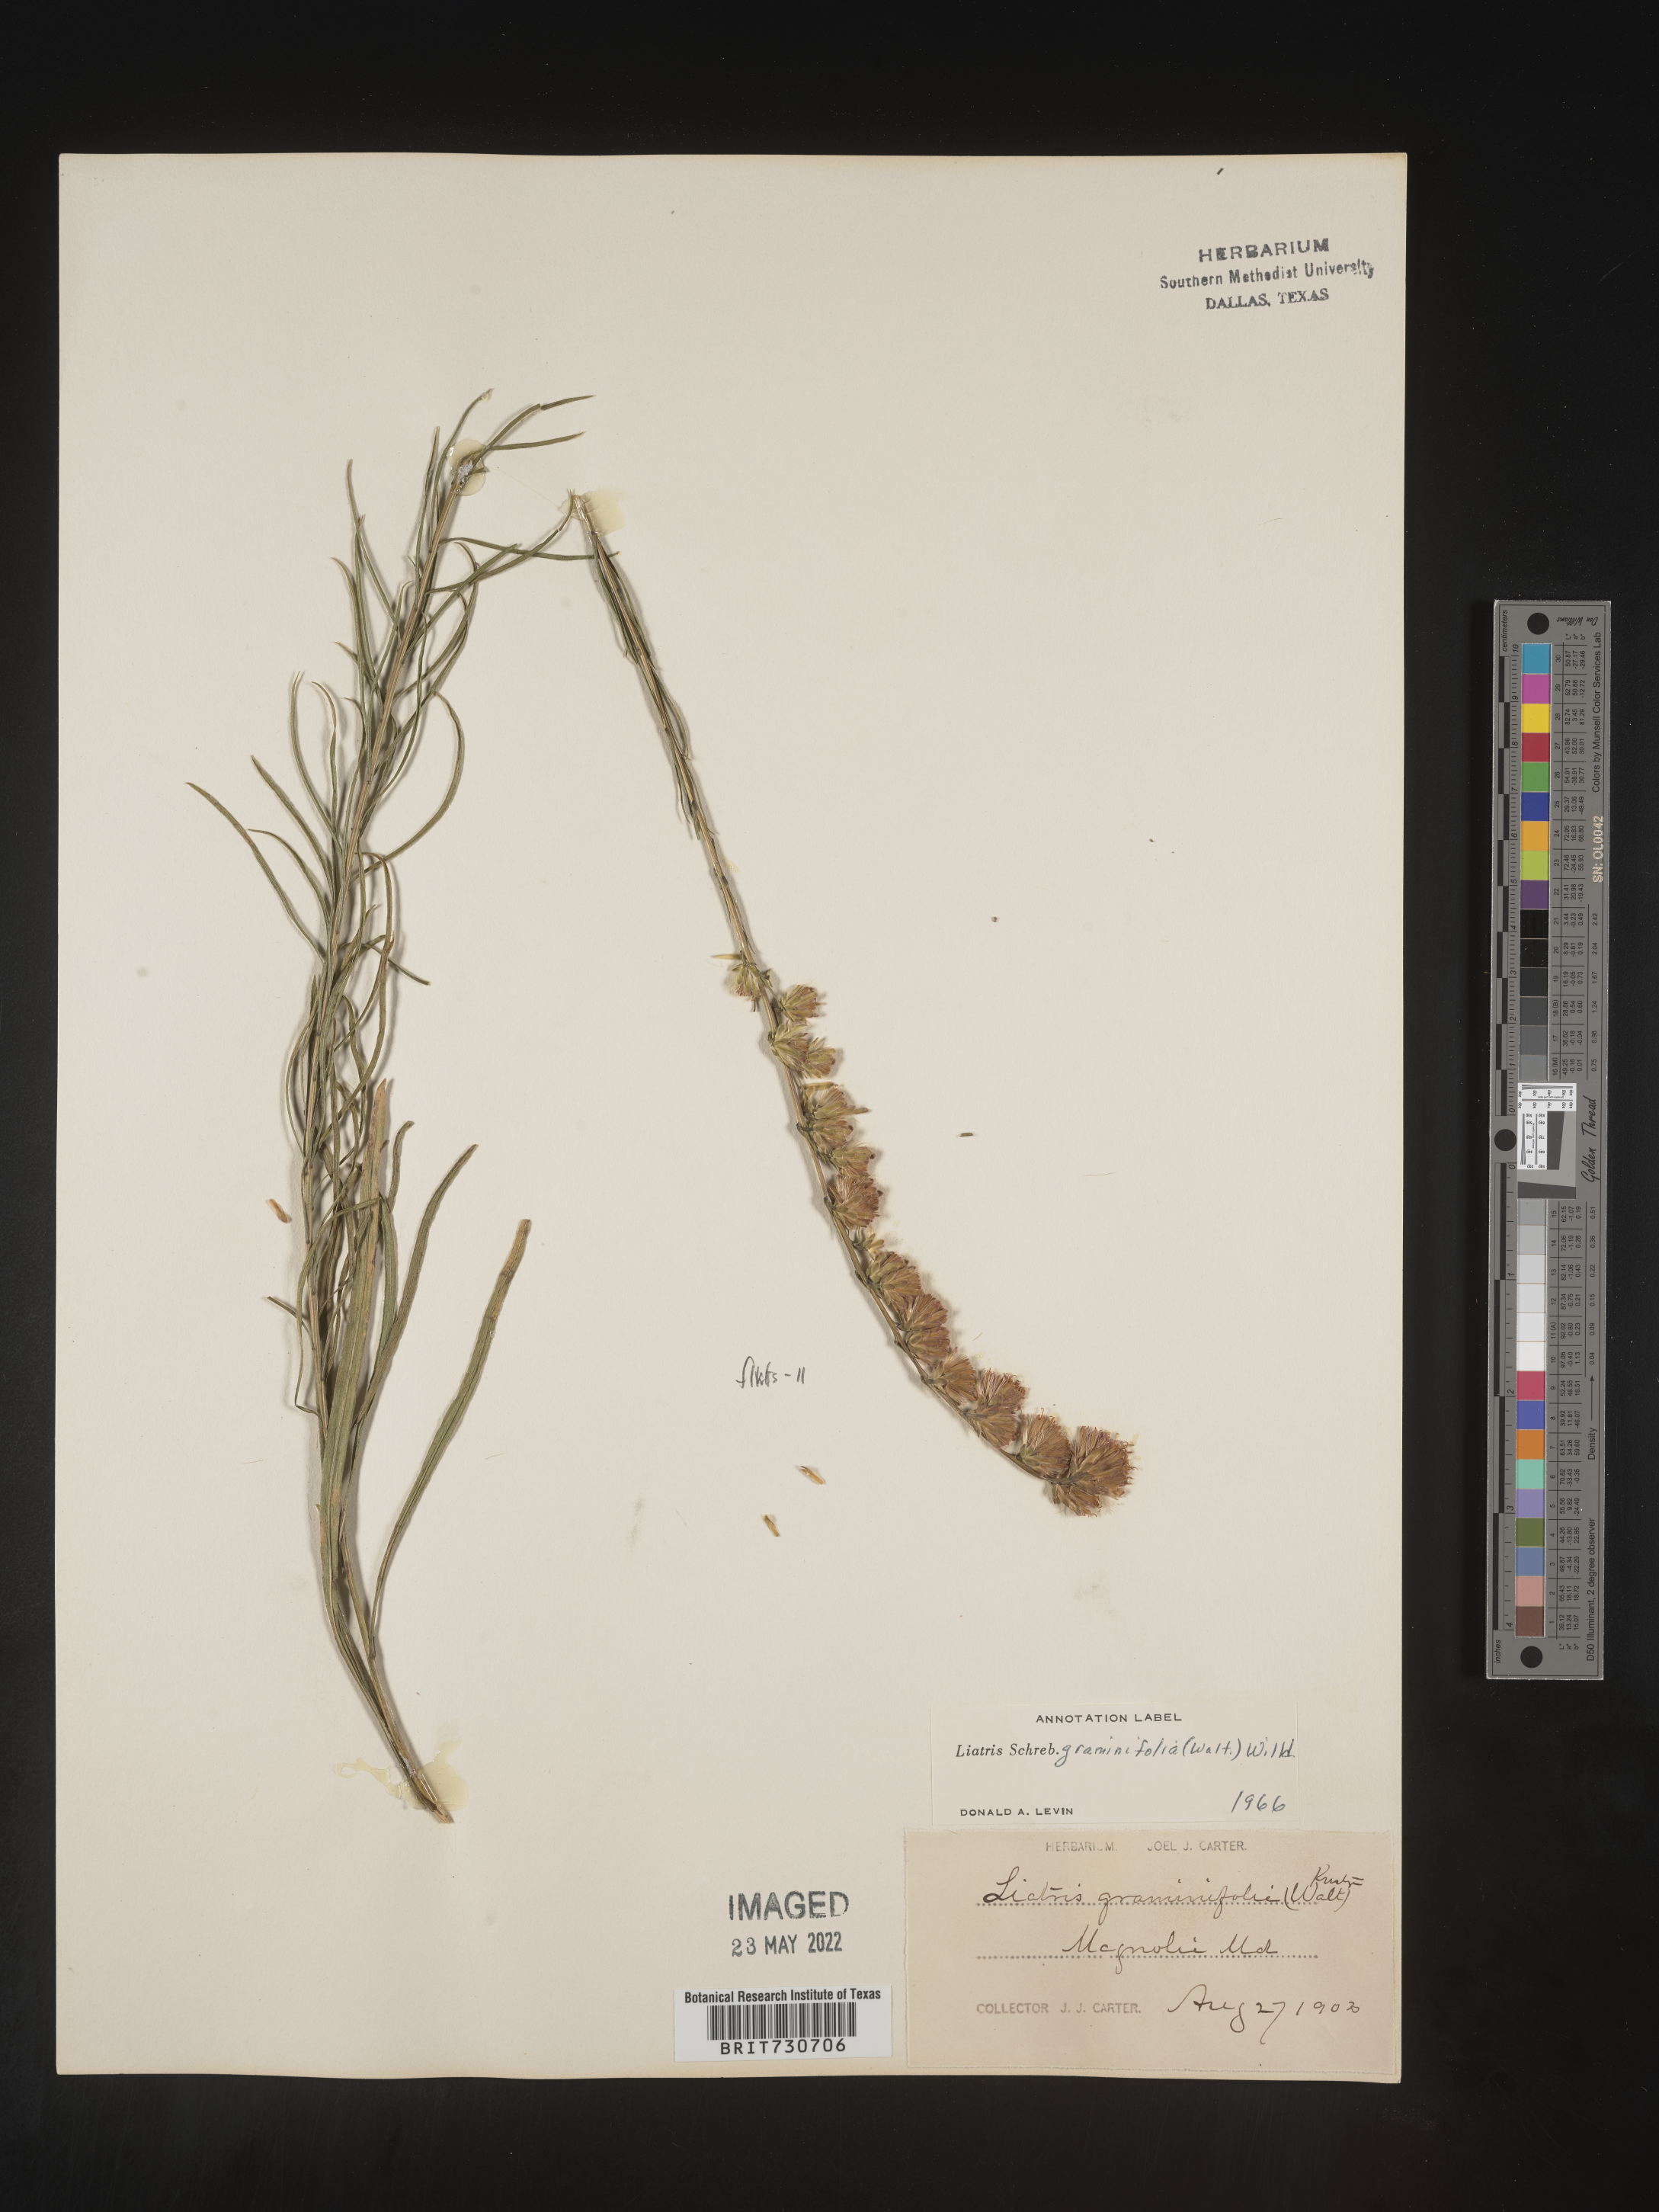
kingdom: Plantae
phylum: Tracheophyta
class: Magnoliopsida
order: Asterales
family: Asteraceae
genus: Liatris
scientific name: Liatris pilosa
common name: Grass-leaf gayfeather
